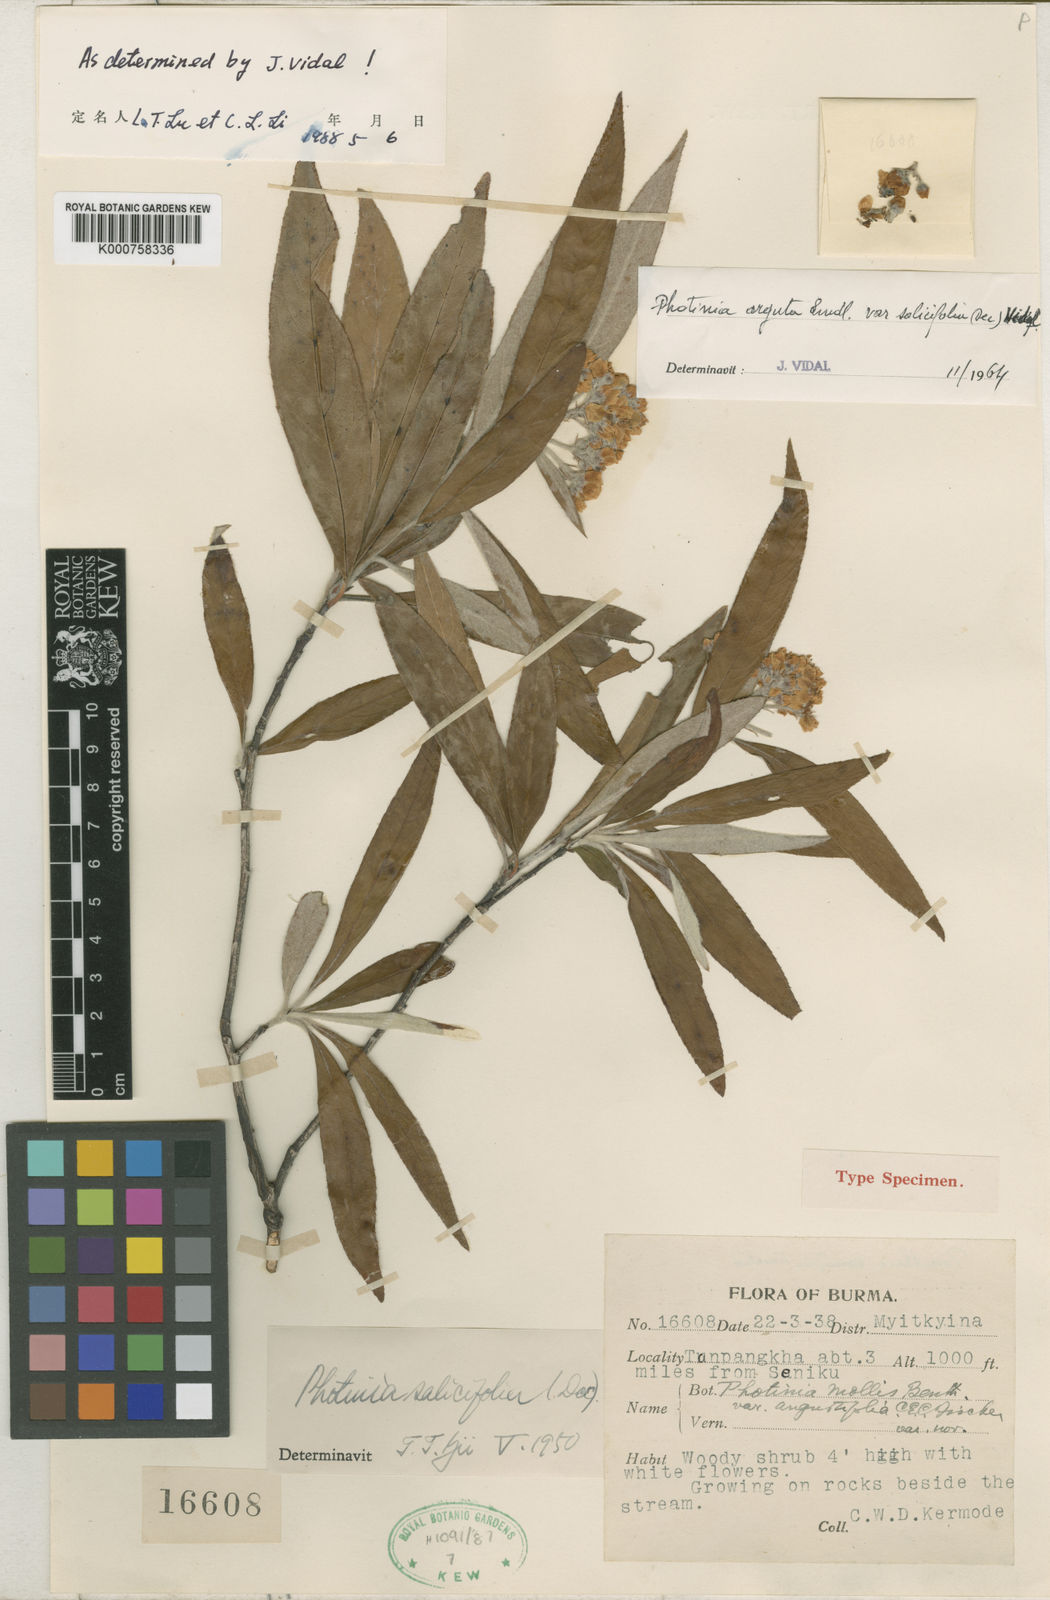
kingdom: Plantae
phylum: Tracheophyta
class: Magnoliopsida
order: Rosales
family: Rosaceae
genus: Photinia
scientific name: Photinia
